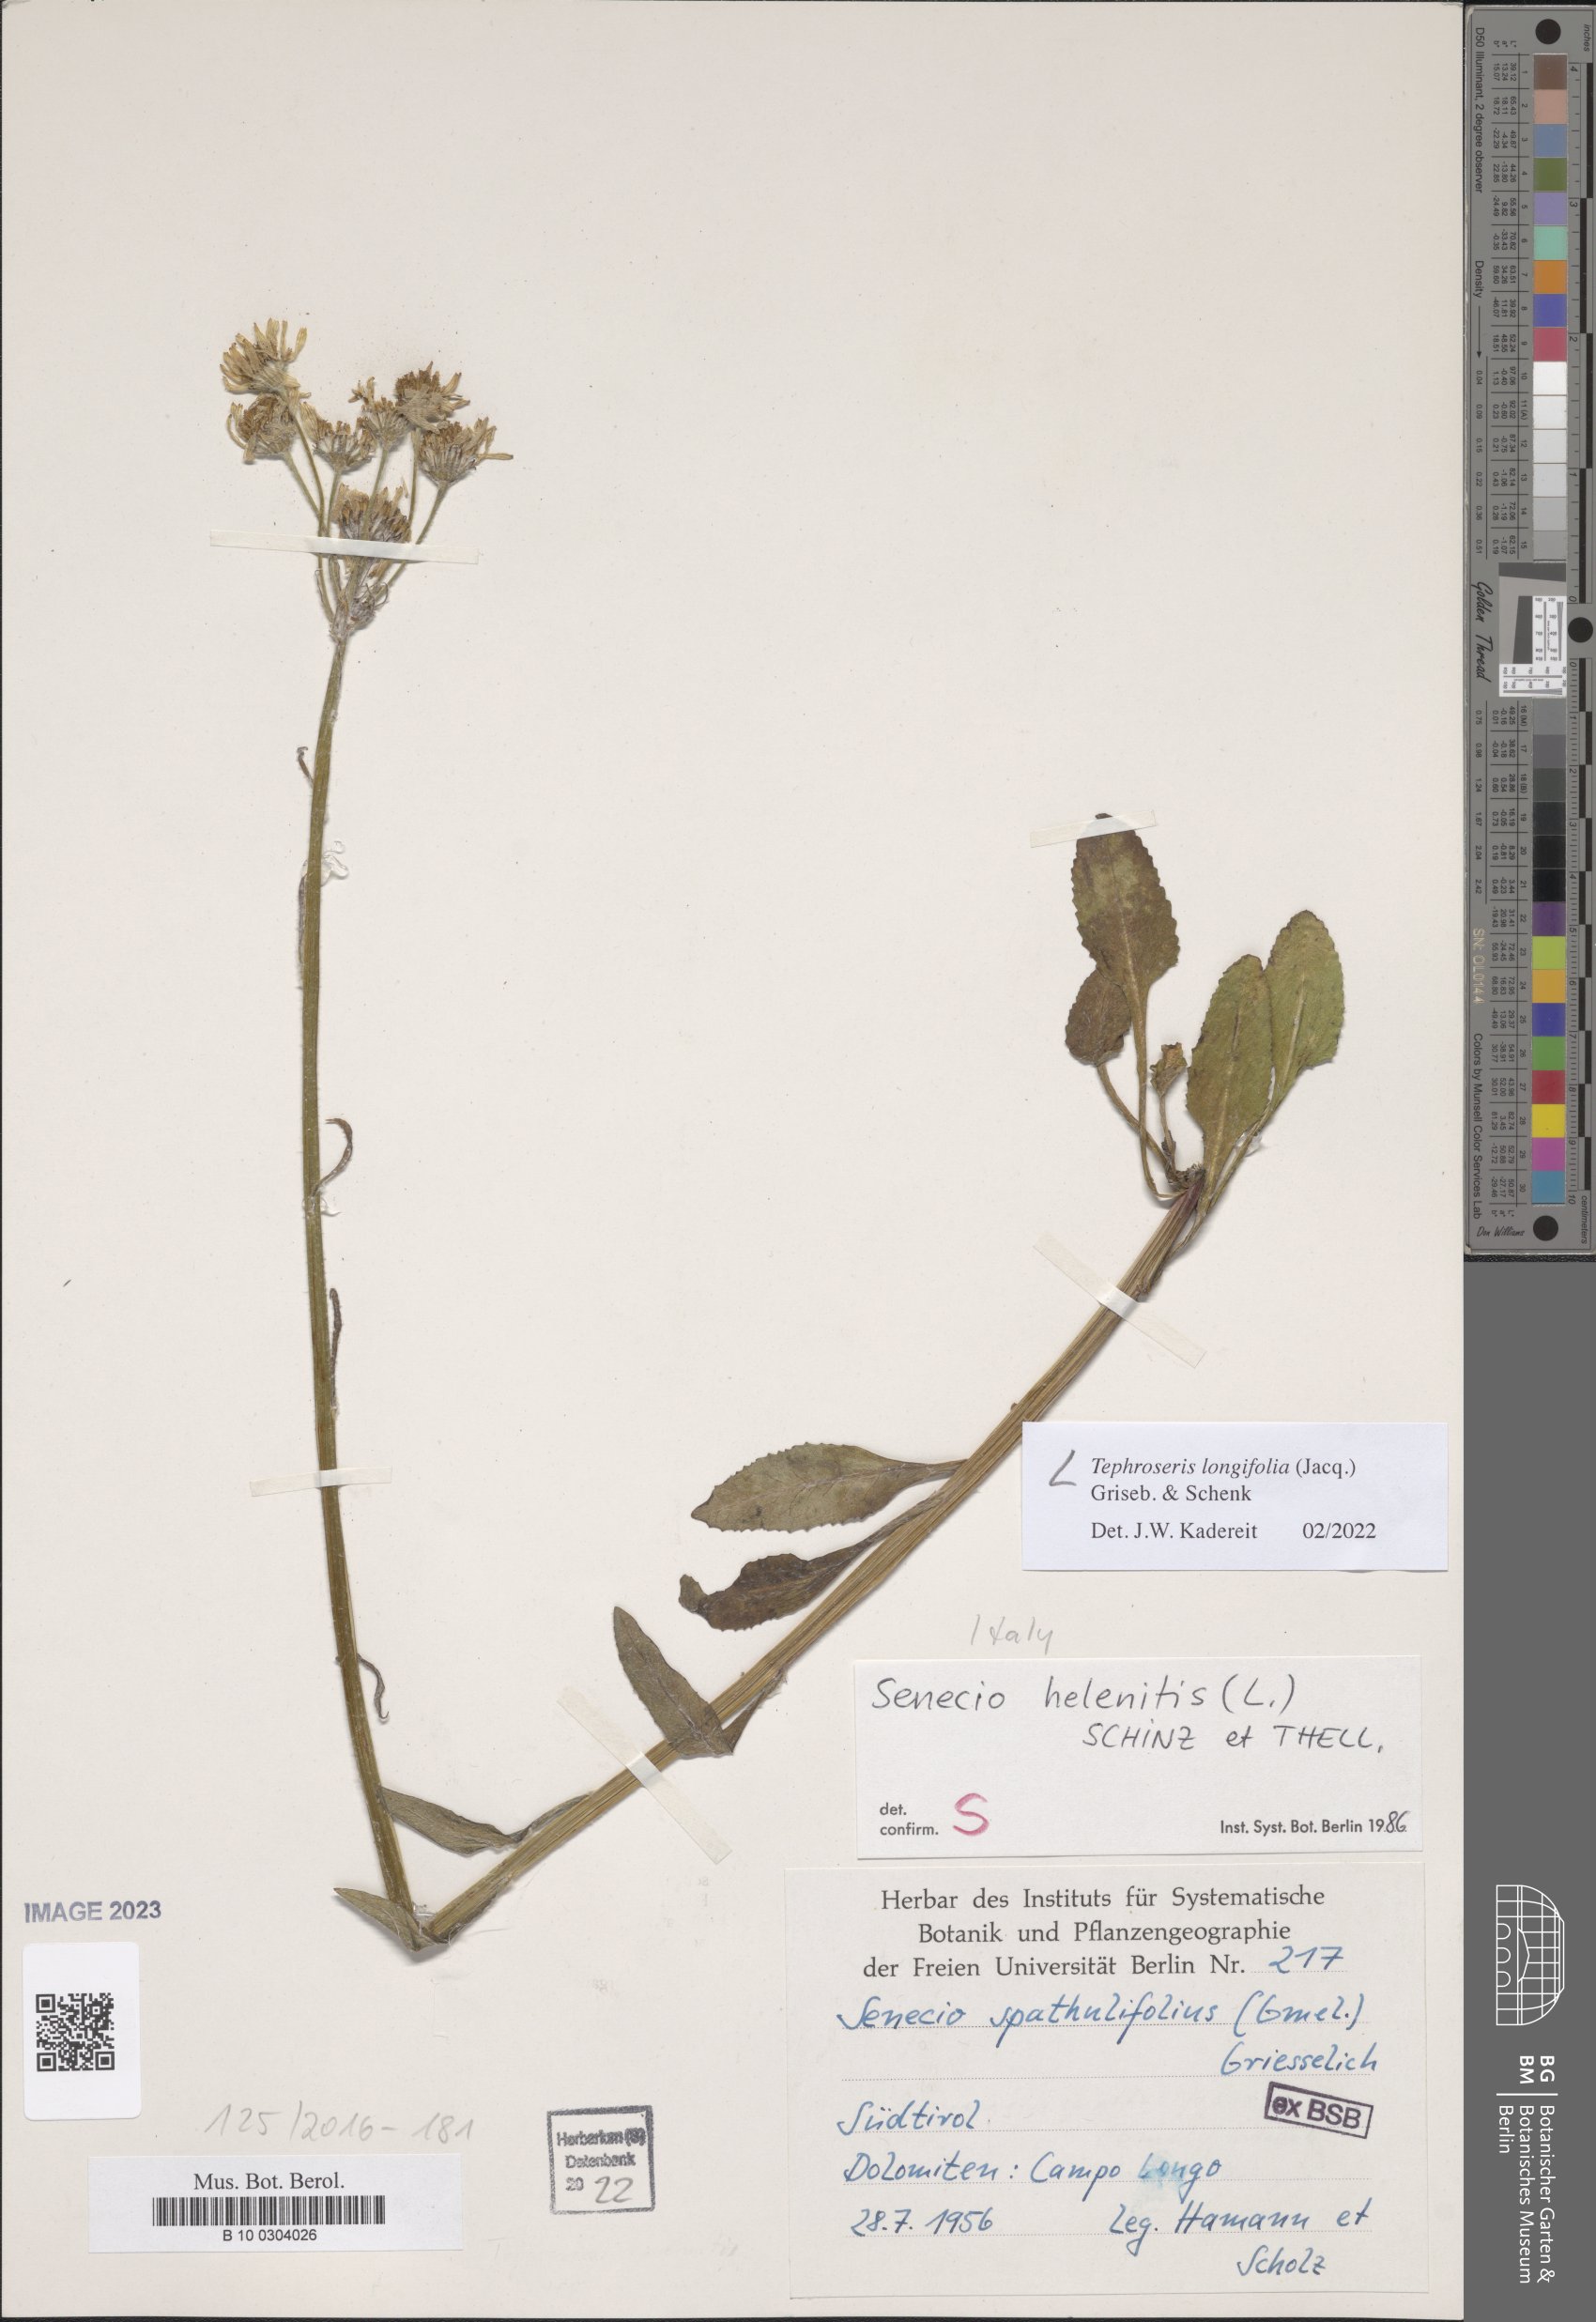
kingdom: Plantae
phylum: Tracheophyta
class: Magnoliopsida
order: Asterales
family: Asteraceae
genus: Tephroseris
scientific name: Tephroseris longifolia
